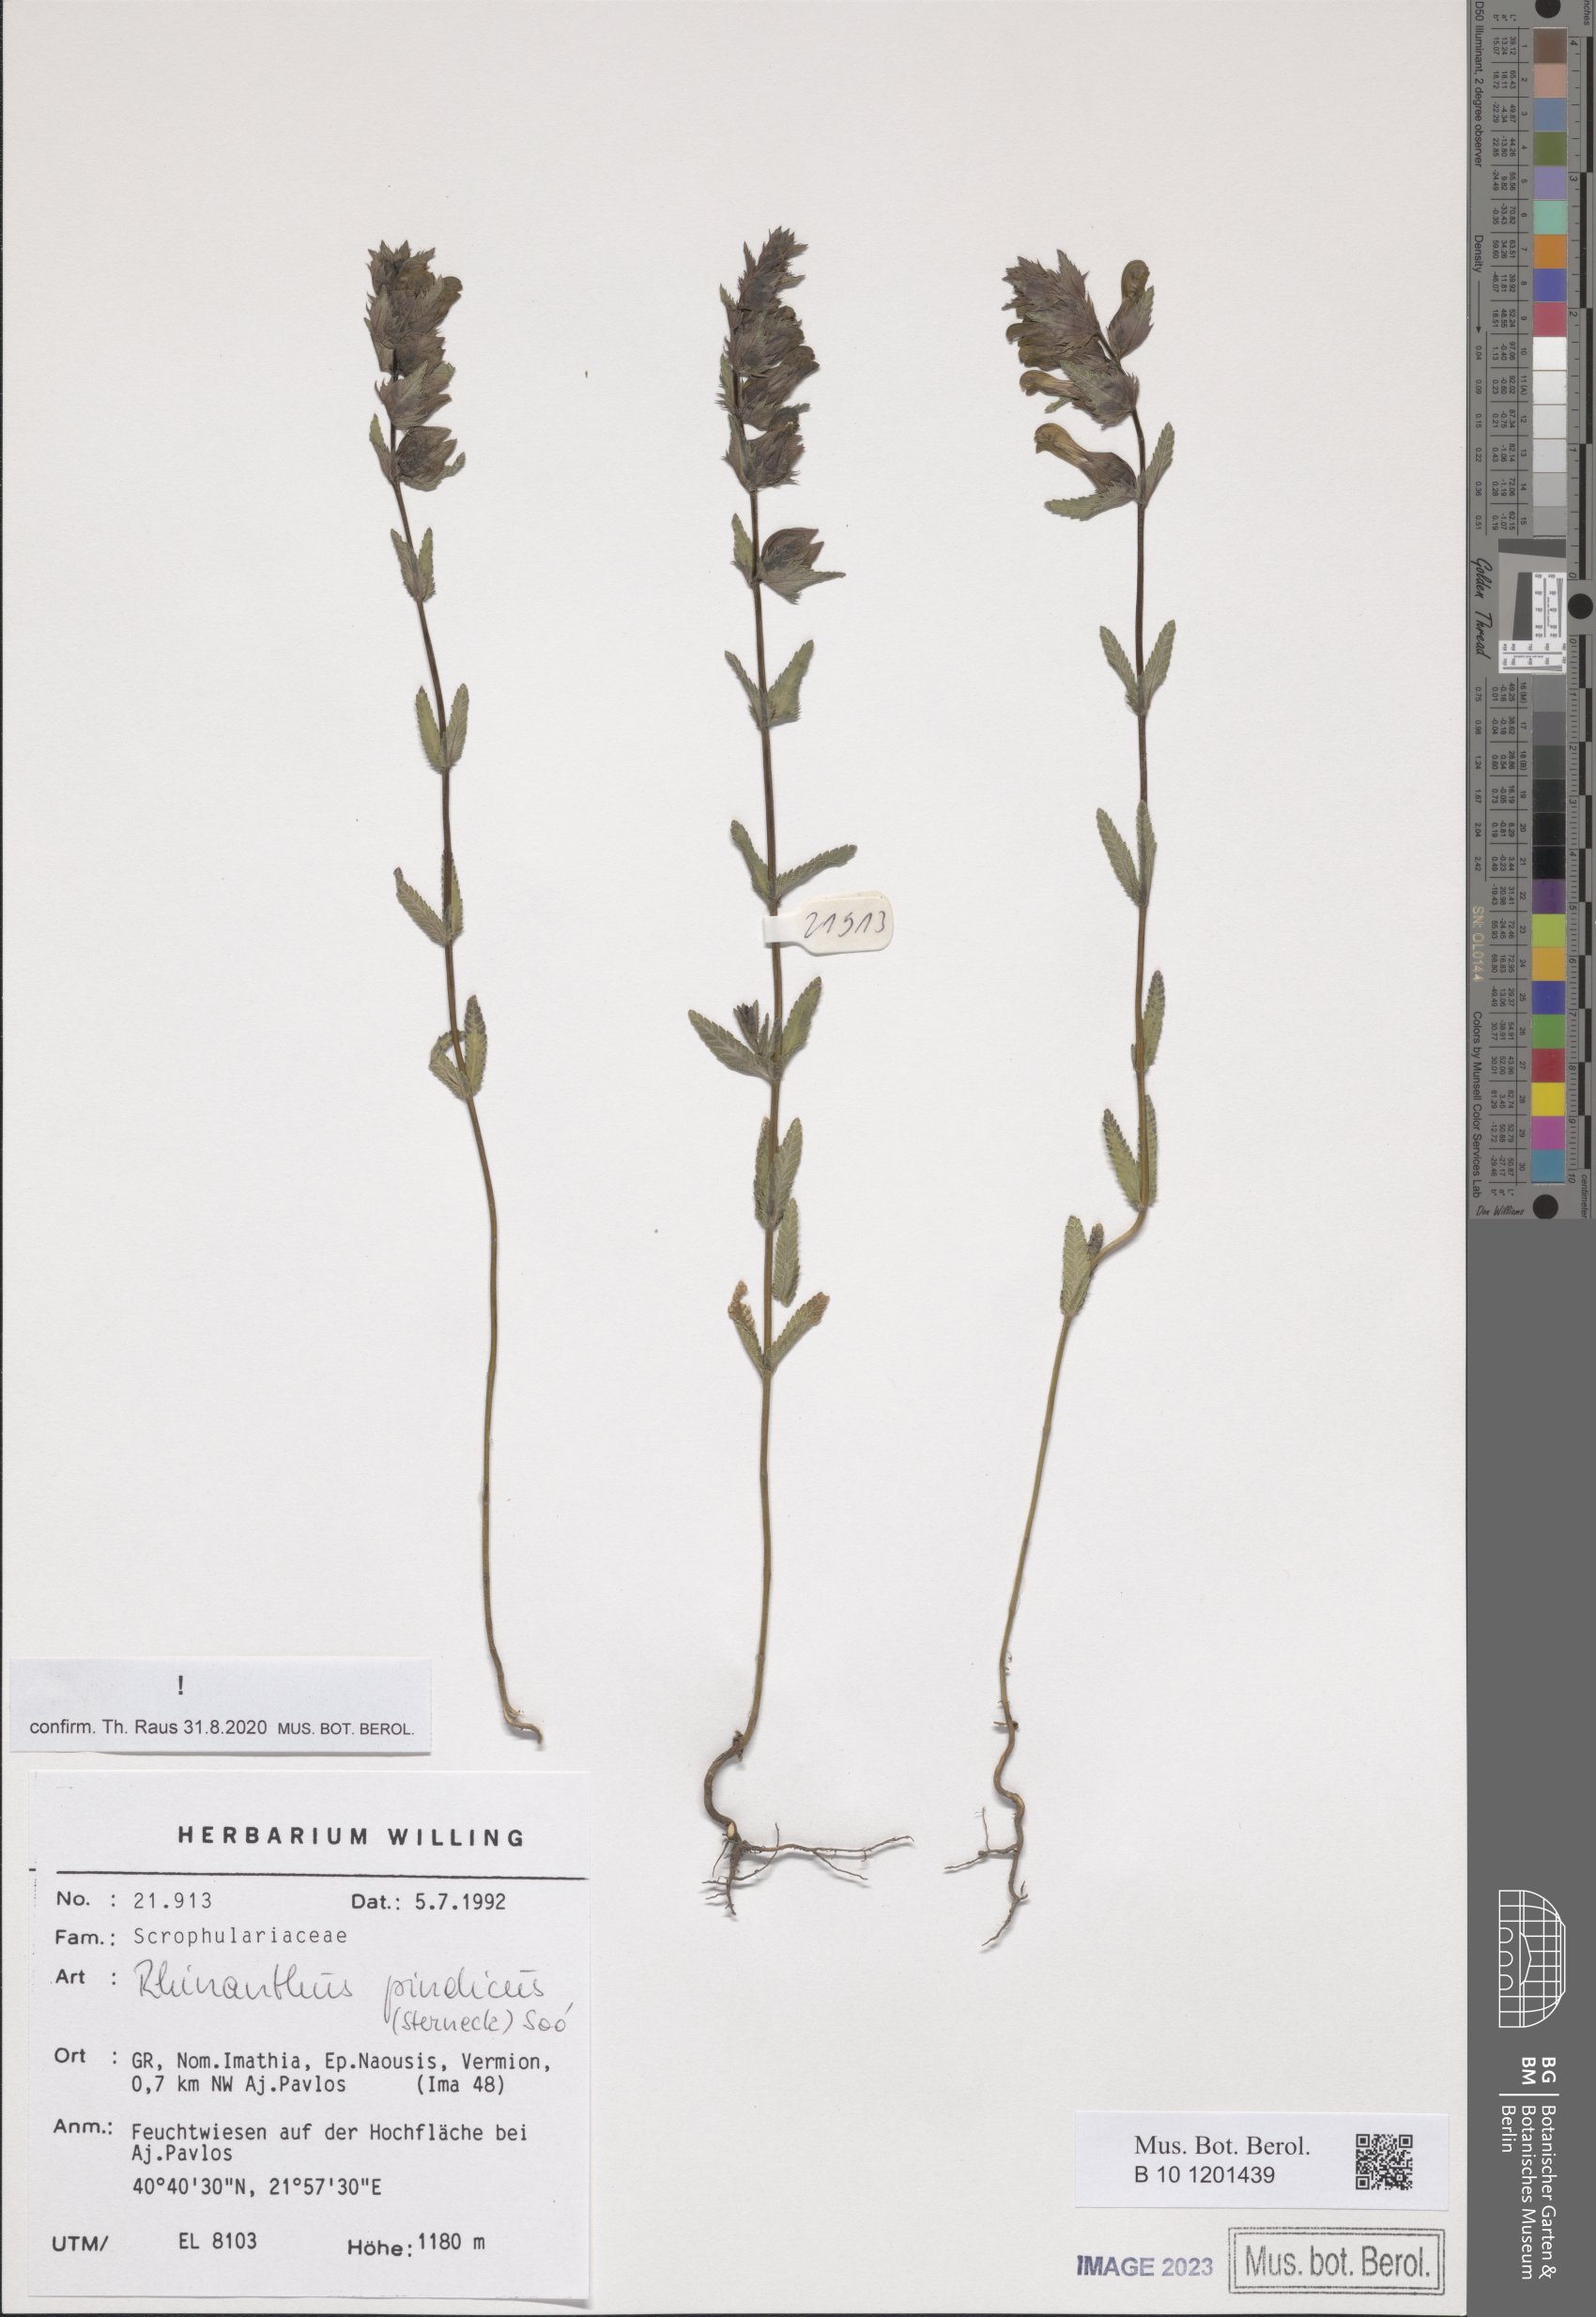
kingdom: Plantae
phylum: Tracheophyta
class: Magnoliopsida
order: Lamiales
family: Orobanchaceae
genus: Rhinanthus
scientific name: Rhinanthus pindicus
